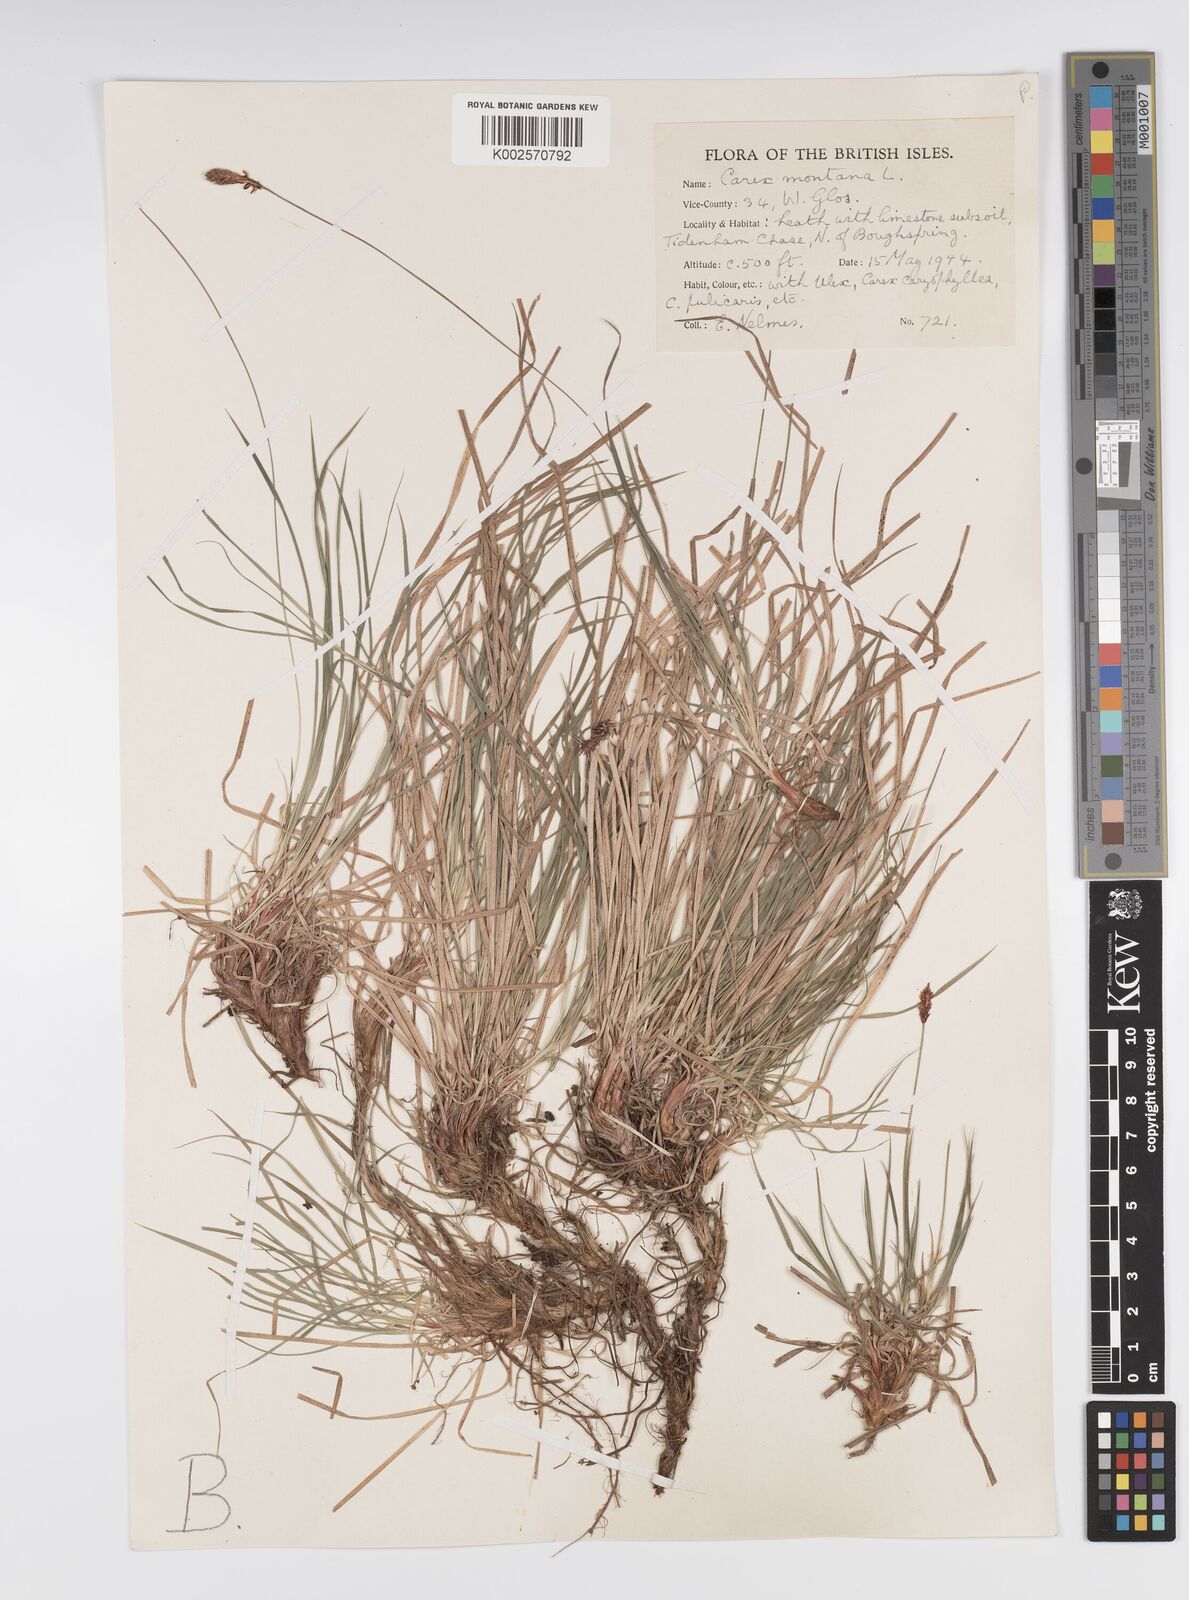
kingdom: Plantae
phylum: Tracheophyta
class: Liliopsida
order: Poales
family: Cyperaceae
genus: Carex
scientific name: Carex montana
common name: Soft-leaved sedge
